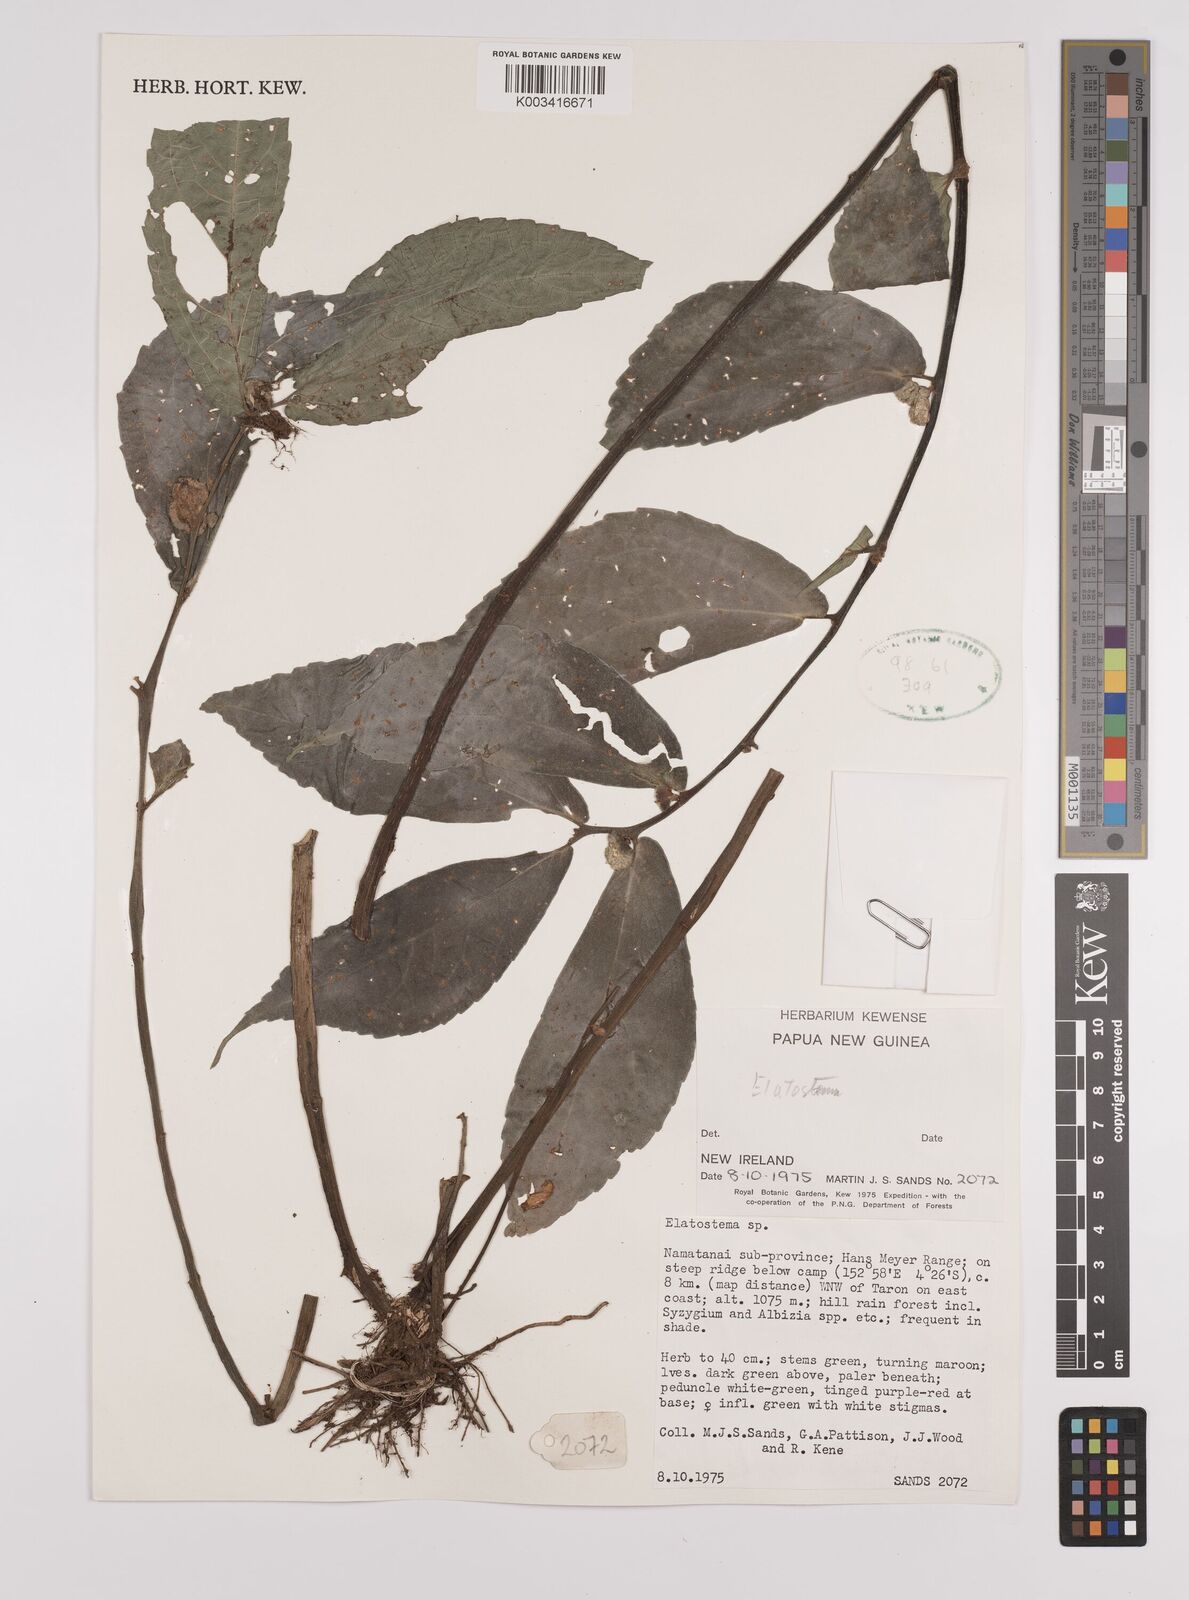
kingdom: Plantae
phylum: Tracheophyta
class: Magnoliopsida
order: Rosales
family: Urticaceae
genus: Elatostema
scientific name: Elatostema
